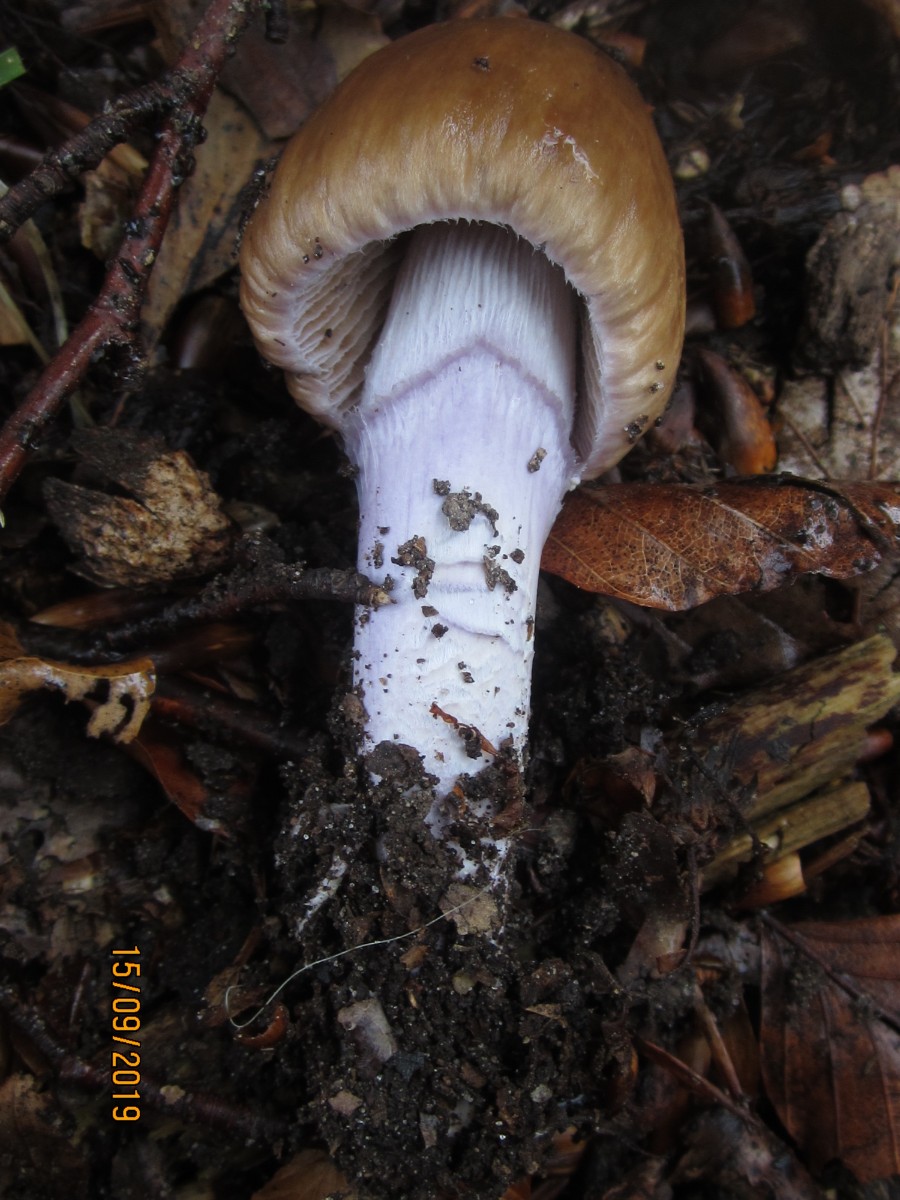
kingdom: Fungi
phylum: Basidiomycota
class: Agaricomycetes
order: Agaricales
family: Cortinariaceae
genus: Cortinarius
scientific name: Cortinarius elatior
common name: høj slørhat
